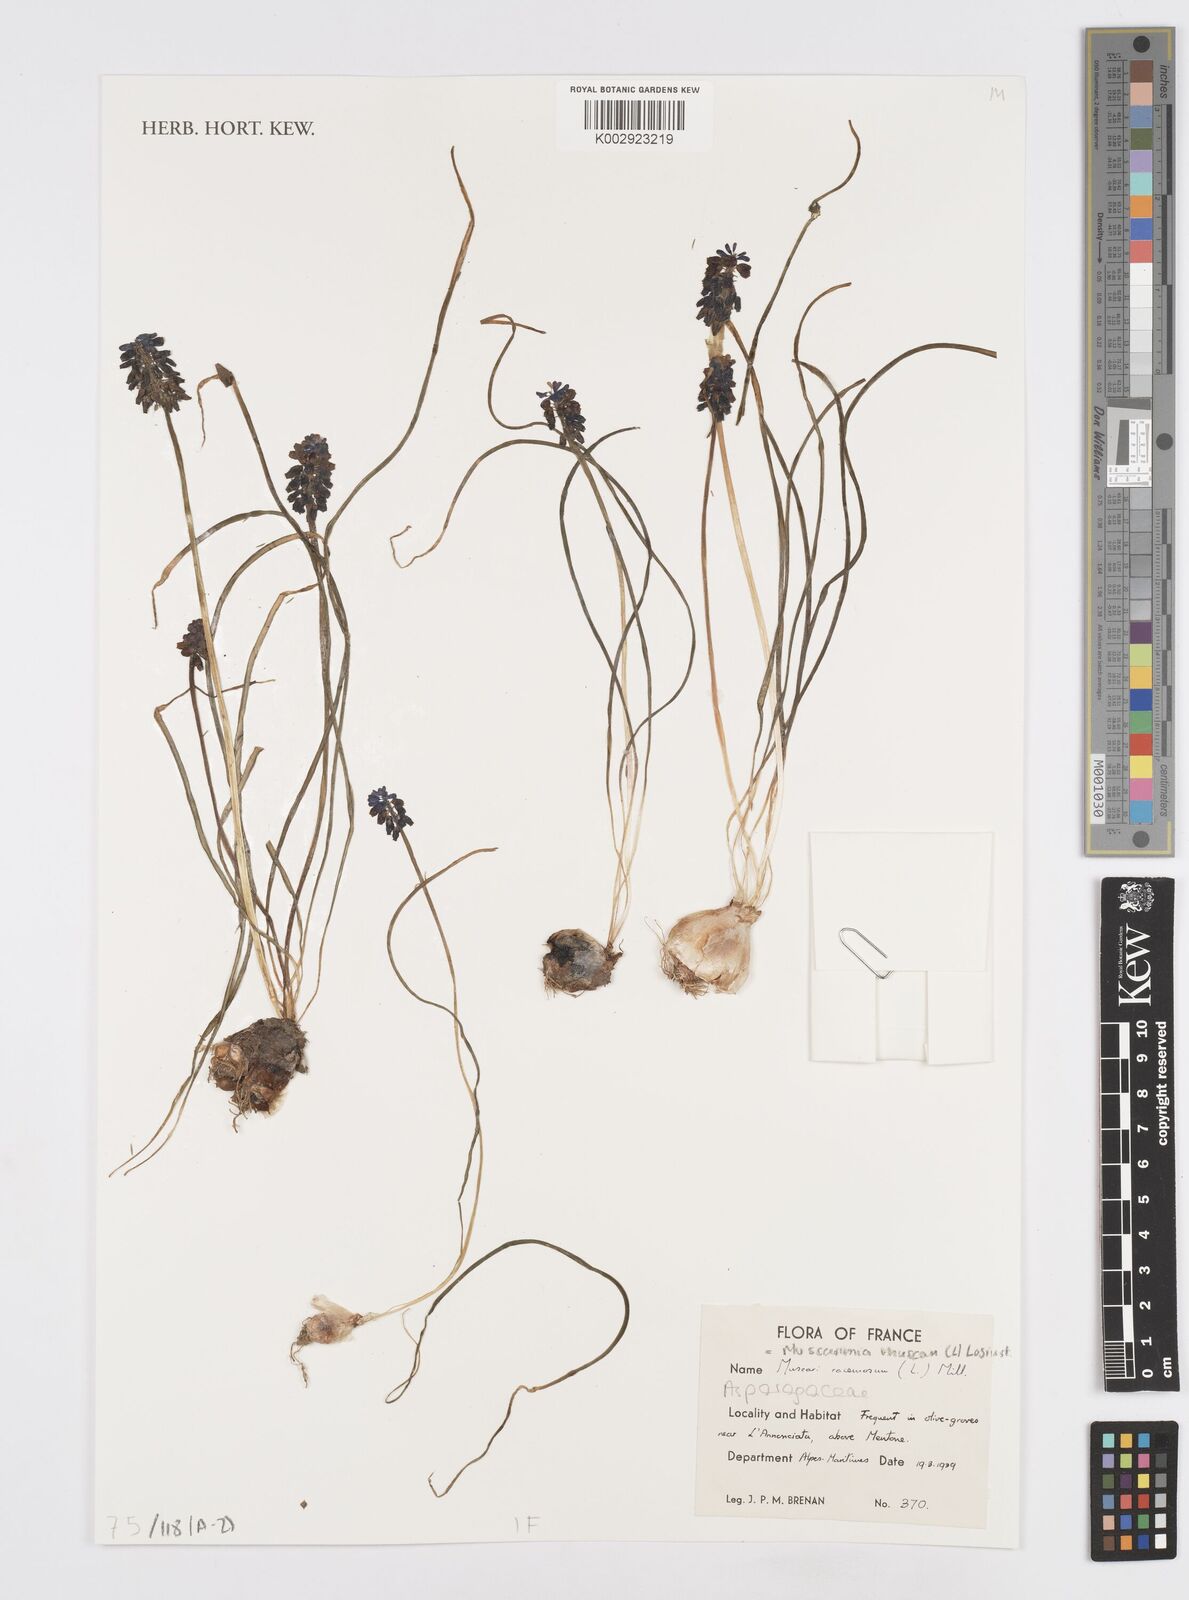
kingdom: Plantae
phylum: Tracheophyta
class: Liliopsida
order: Asparagales
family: Asparagaceae
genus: Muscarimia
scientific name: Muscarimia muscari
